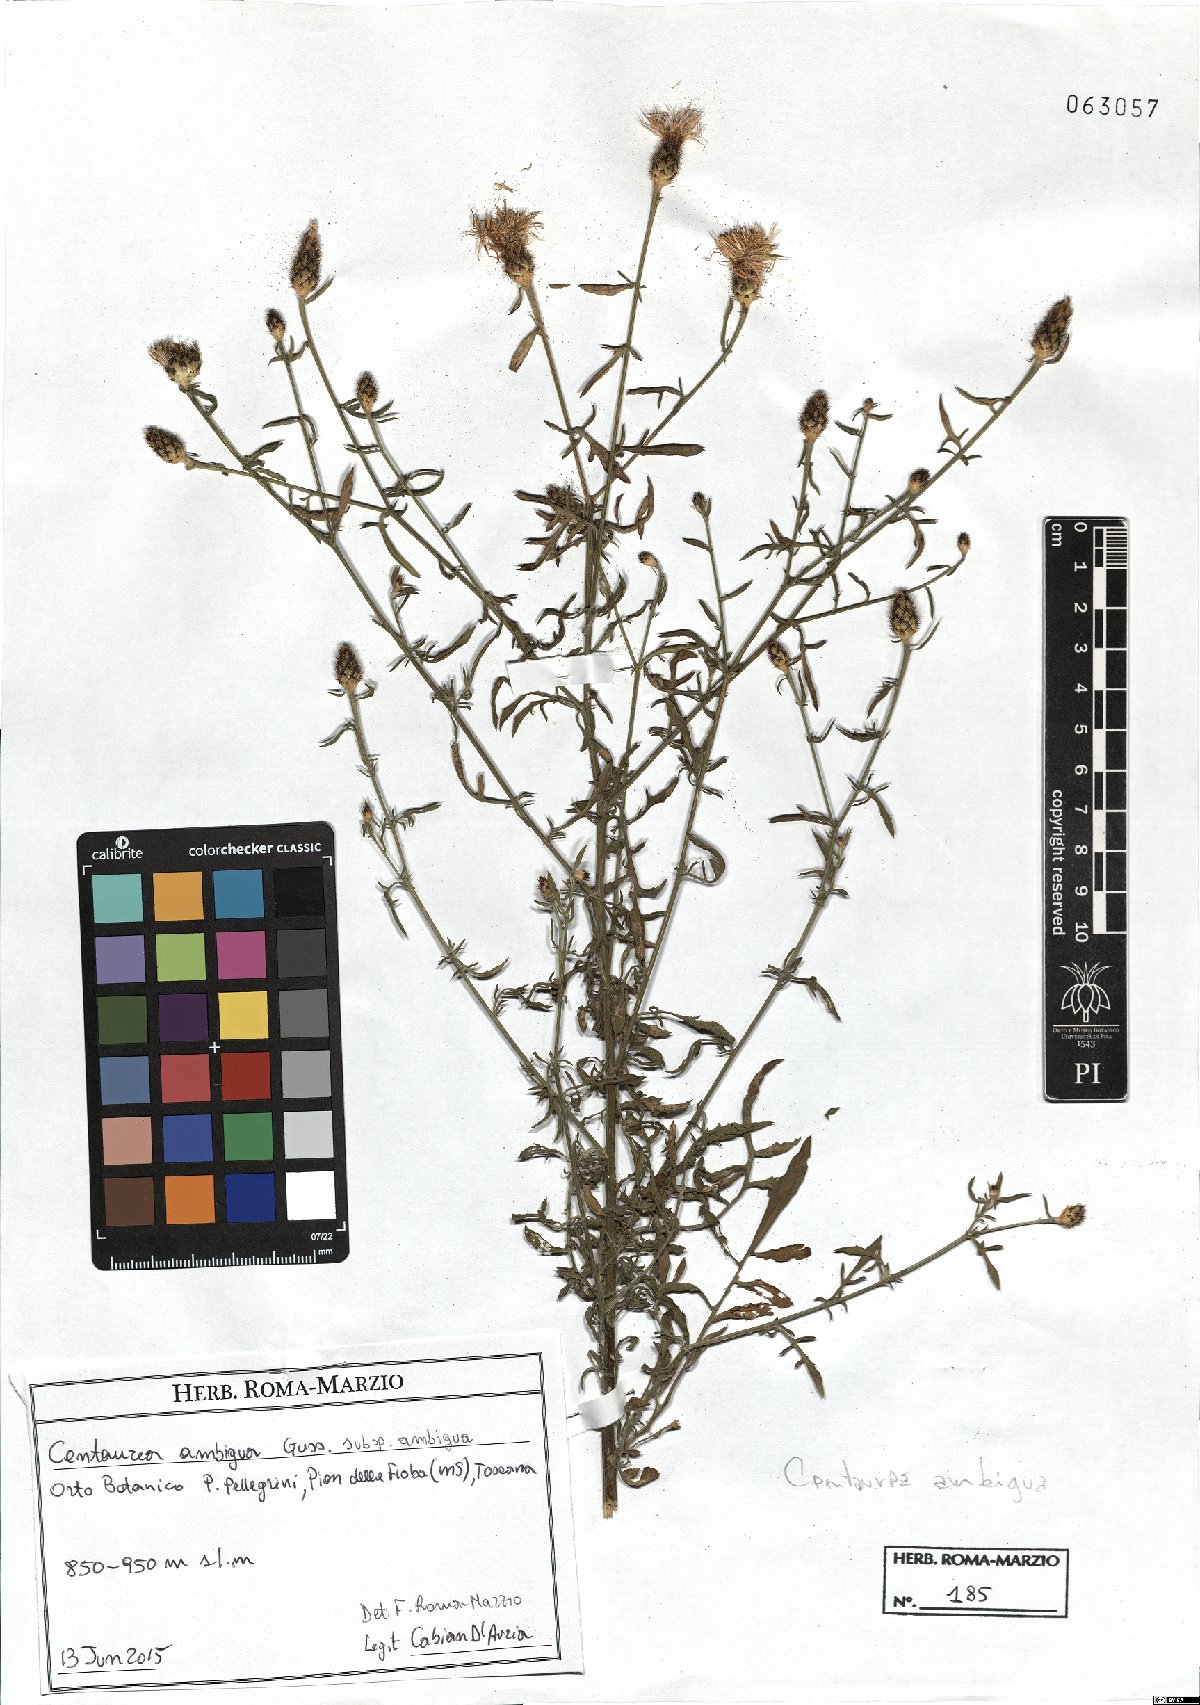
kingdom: Plantae
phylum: Tracheophyta
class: Magnoliopsida
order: Asterales
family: Asteraceae
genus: Centaurea
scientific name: Centaurea ambigua
